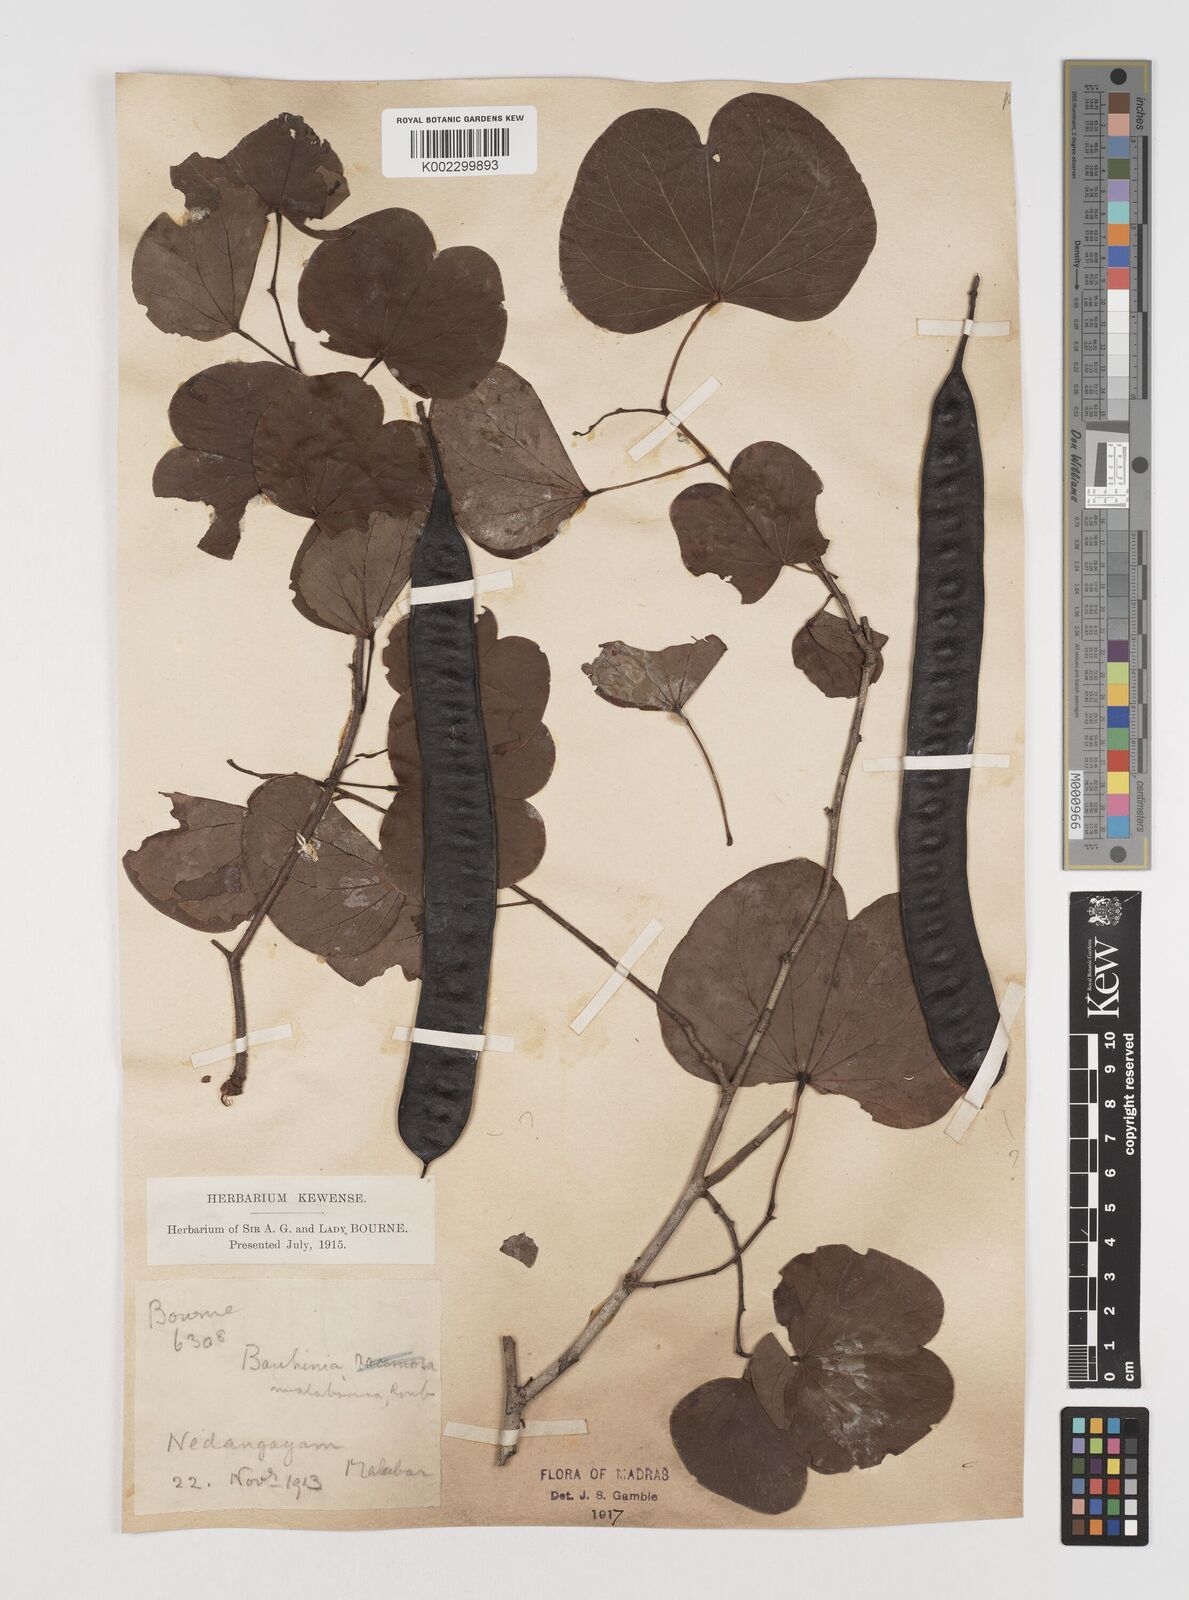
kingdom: Plantae
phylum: Tracheophyta
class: Magnoliopsida
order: Fabales
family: Fabaceae
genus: Piliostigma
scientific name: Piliostigma malabaricum
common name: Malabar bauhinia
